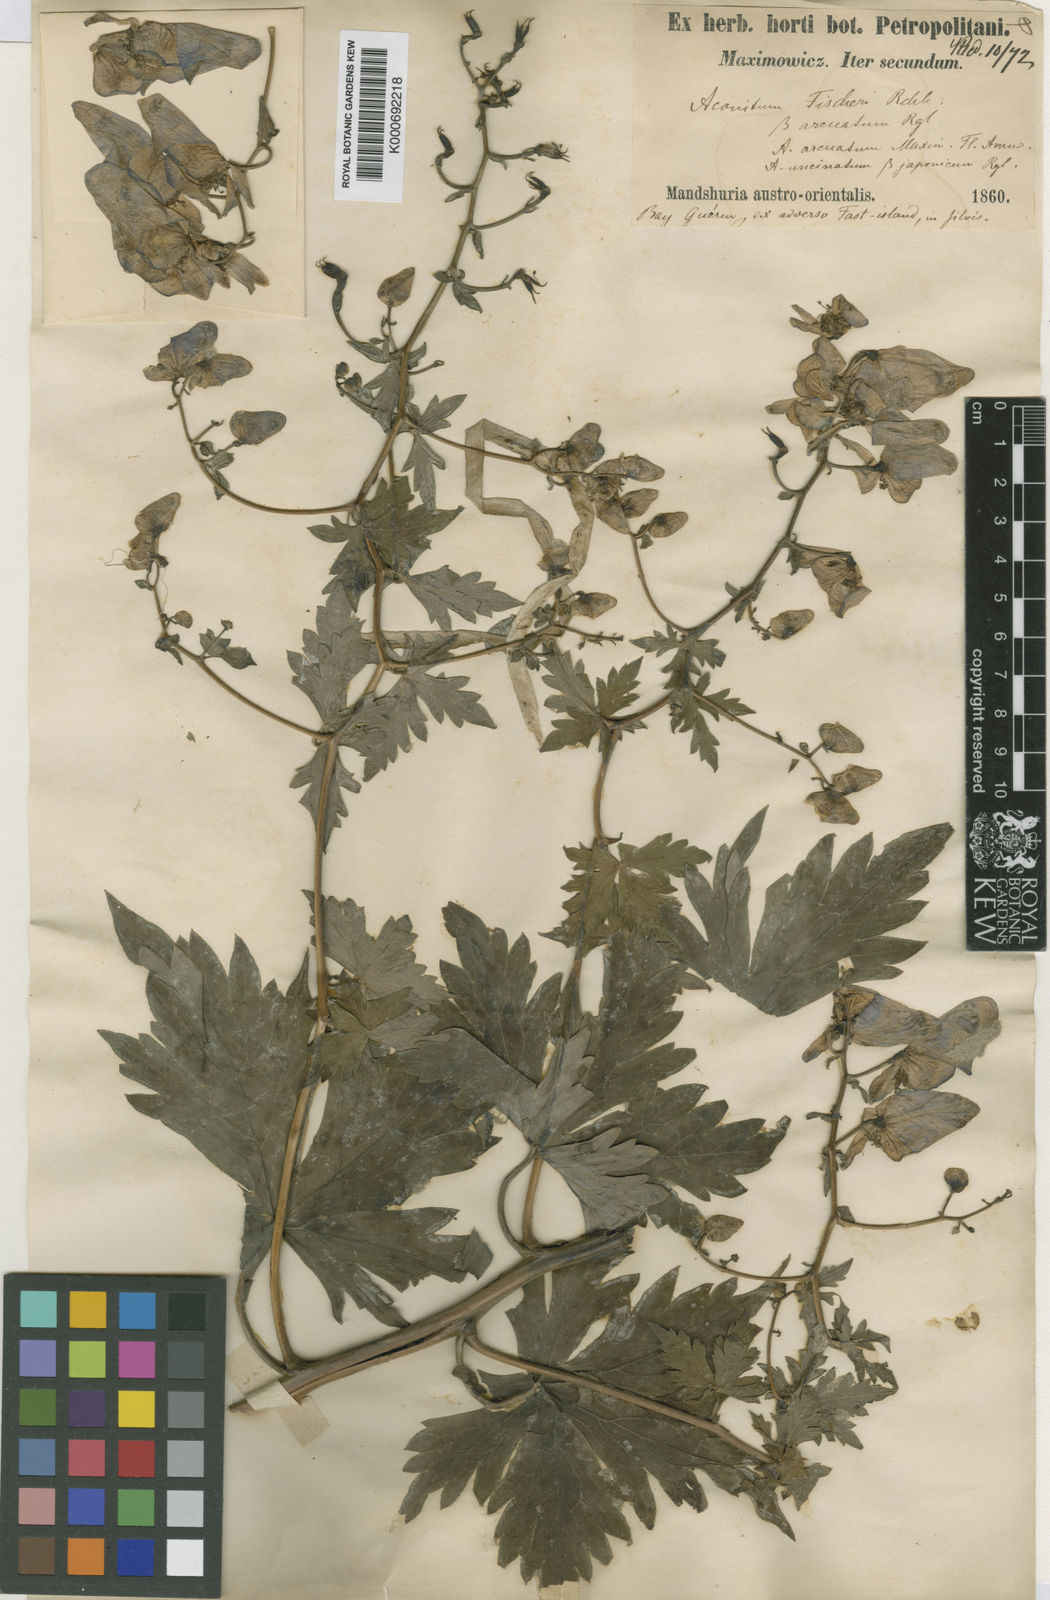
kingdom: Plantae
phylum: Tracheophyta
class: Magnoliopsida
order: Ranunculales
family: Ranunculaceae
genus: Aconitum
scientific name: Aconitum sczukinii
